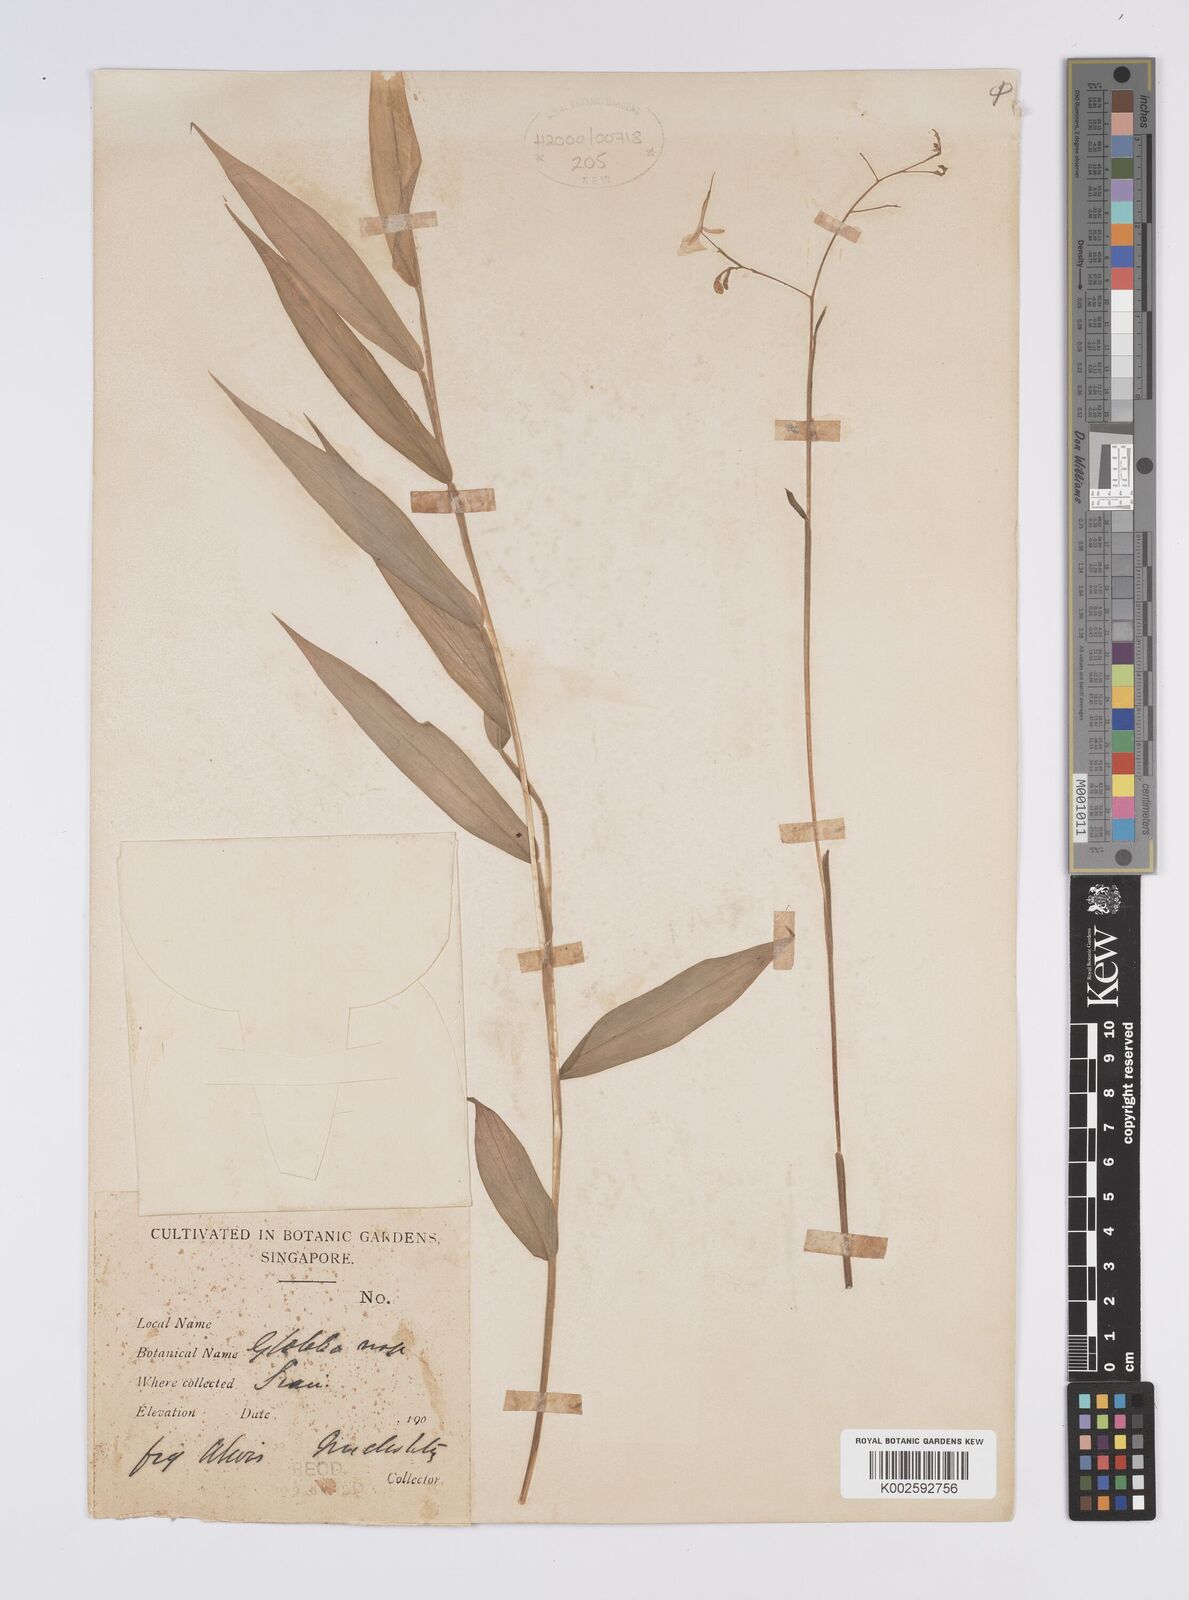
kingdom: Plantae
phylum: Tracheophyta
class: Liliopsida
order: Zingiberales
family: Zingiberaceae
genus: Globba
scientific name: Globba
